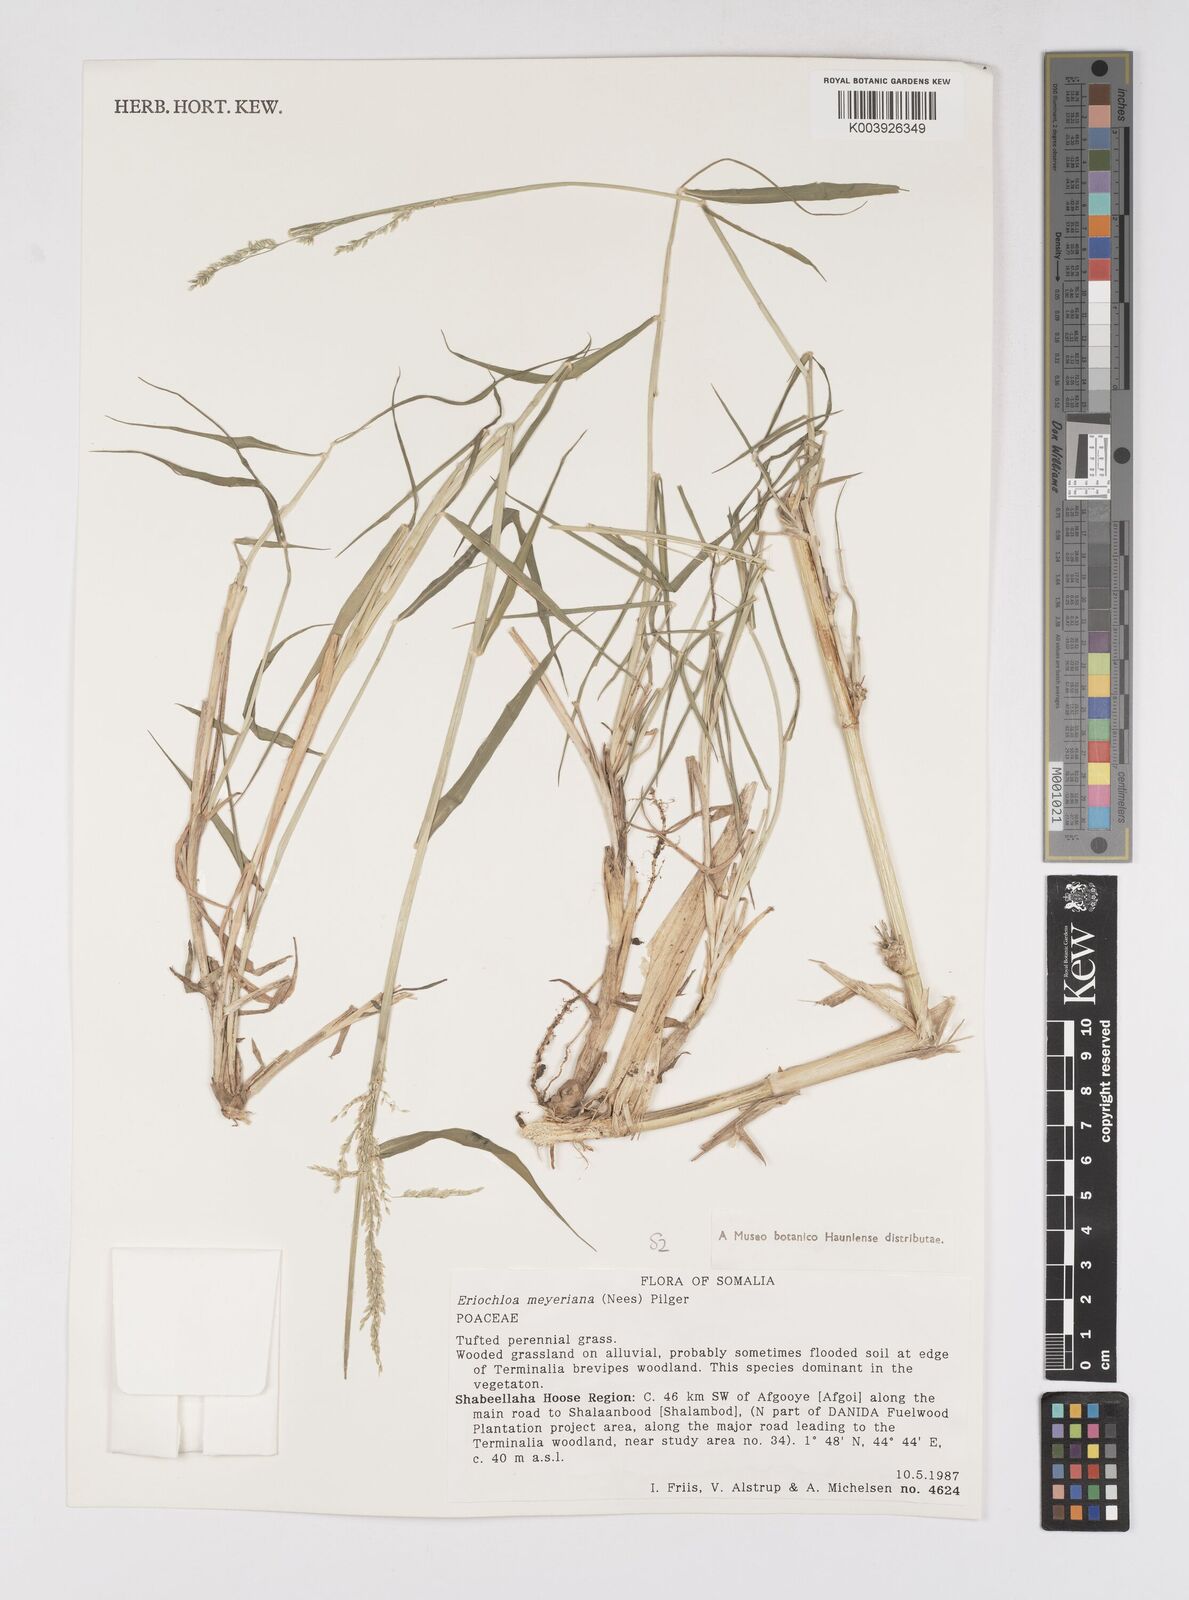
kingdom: Plantae
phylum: Tracheophyta
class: Liliopsida
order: Poales
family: Poaceae
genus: Eriochloa
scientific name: Eriochloa meyeriana
